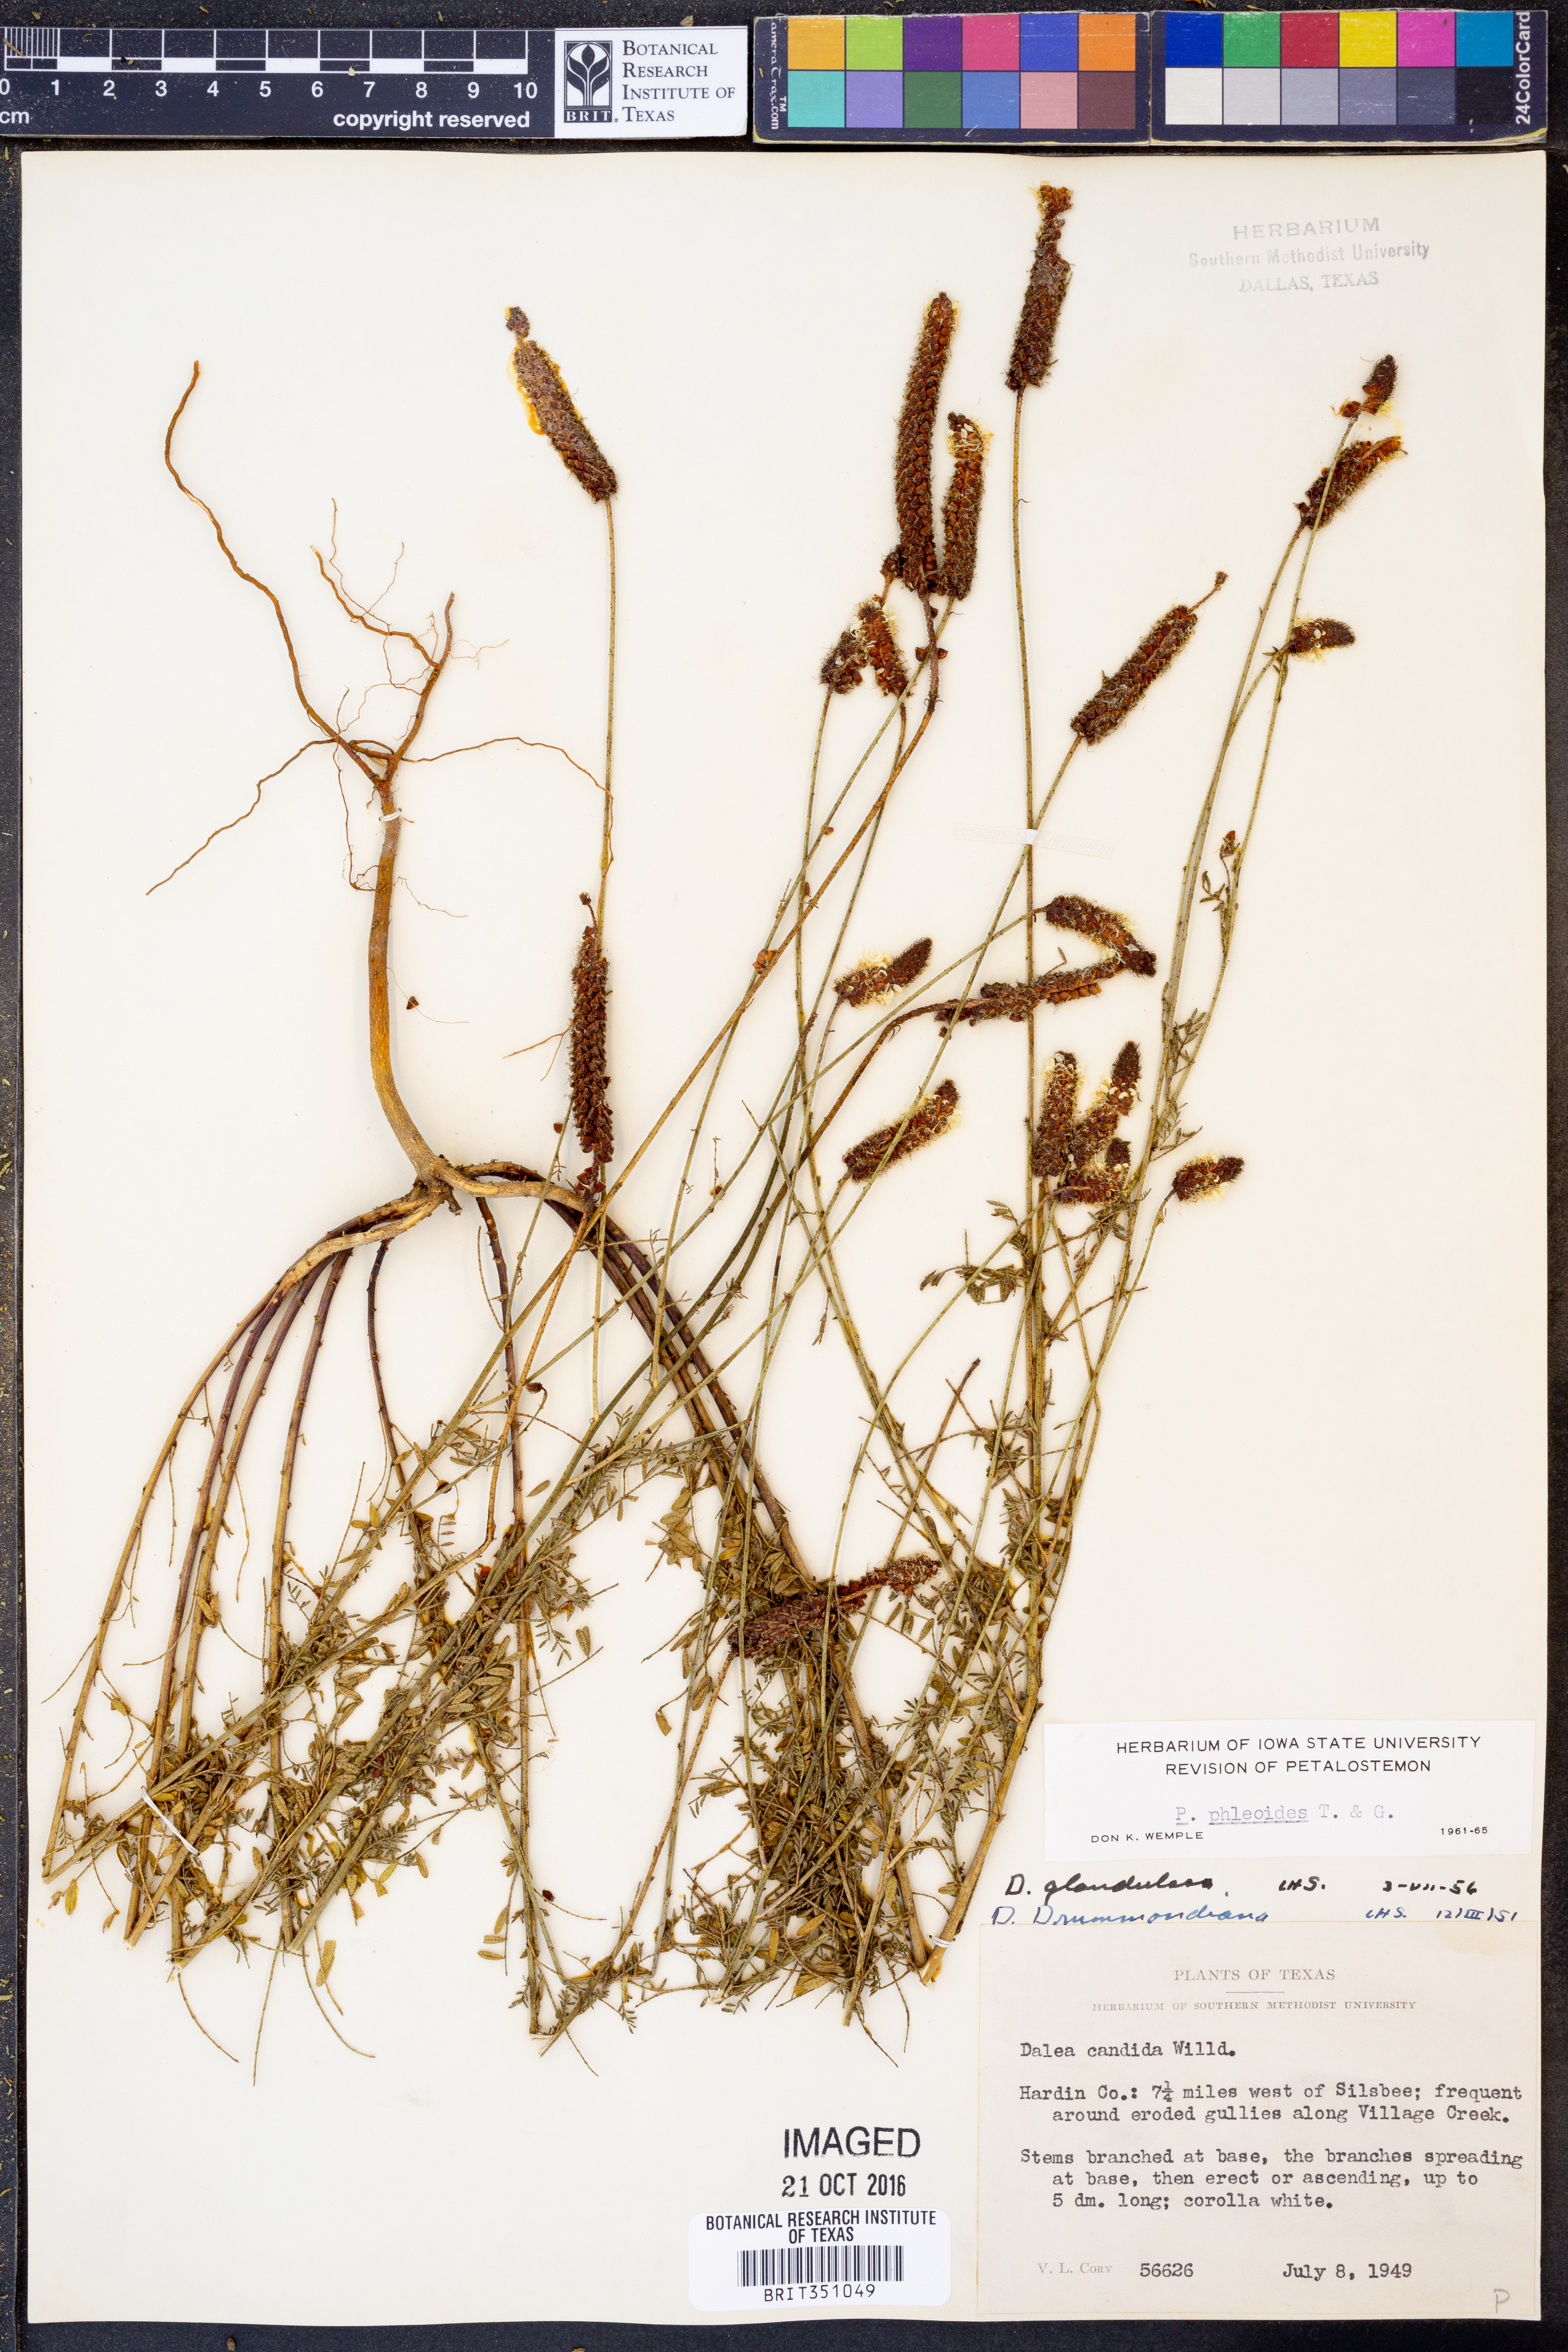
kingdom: Plantae
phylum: Tracheophyta
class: Magnoliopsida
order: Fabales
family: Fabaceae
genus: Dalea
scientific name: Dalea phleoides
